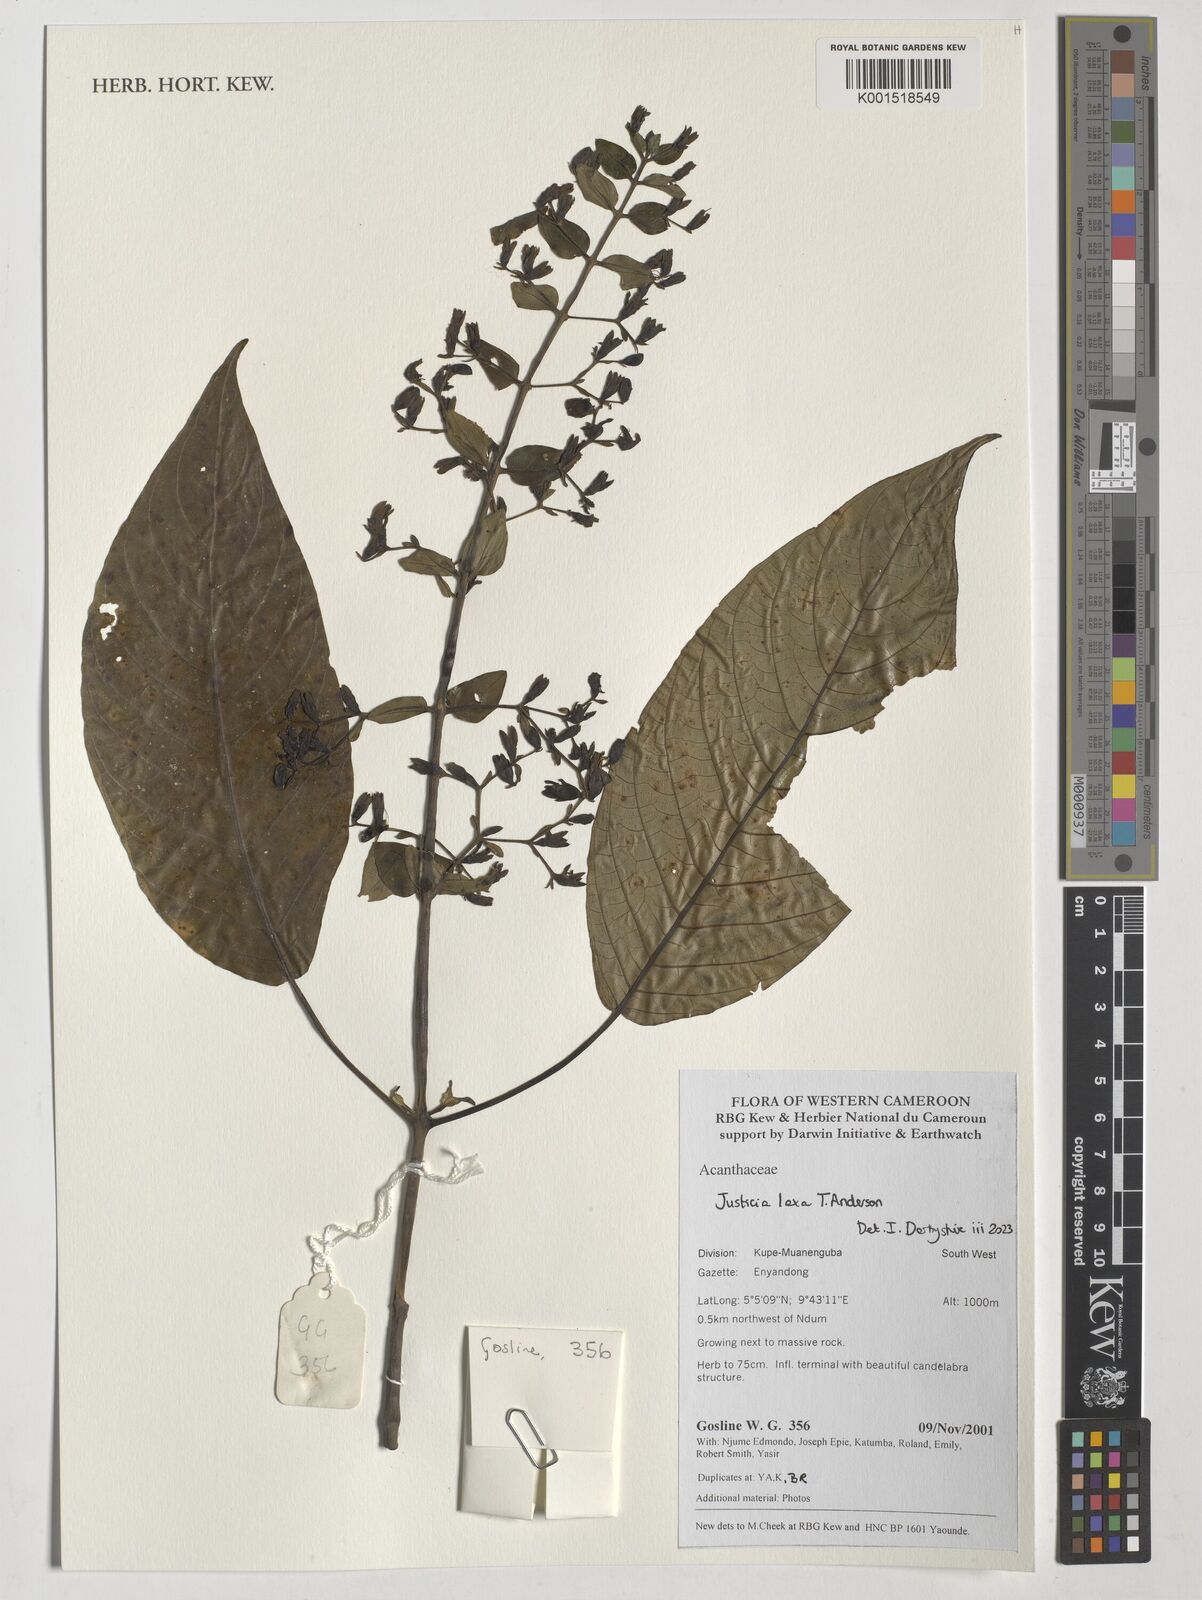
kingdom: Plantae
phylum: Tracheophyta
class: Magnoliopsida
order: Lamiales
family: Acanthaceae
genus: Justicia
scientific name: Justicia laxa
